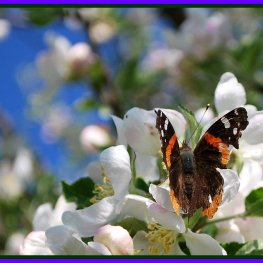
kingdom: Animalia
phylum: Arthropoda
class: Insecta
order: Lepidoptera
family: Nymphalidae
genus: Vanessa
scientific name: Vanessa atalanta
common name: Red Admiral
